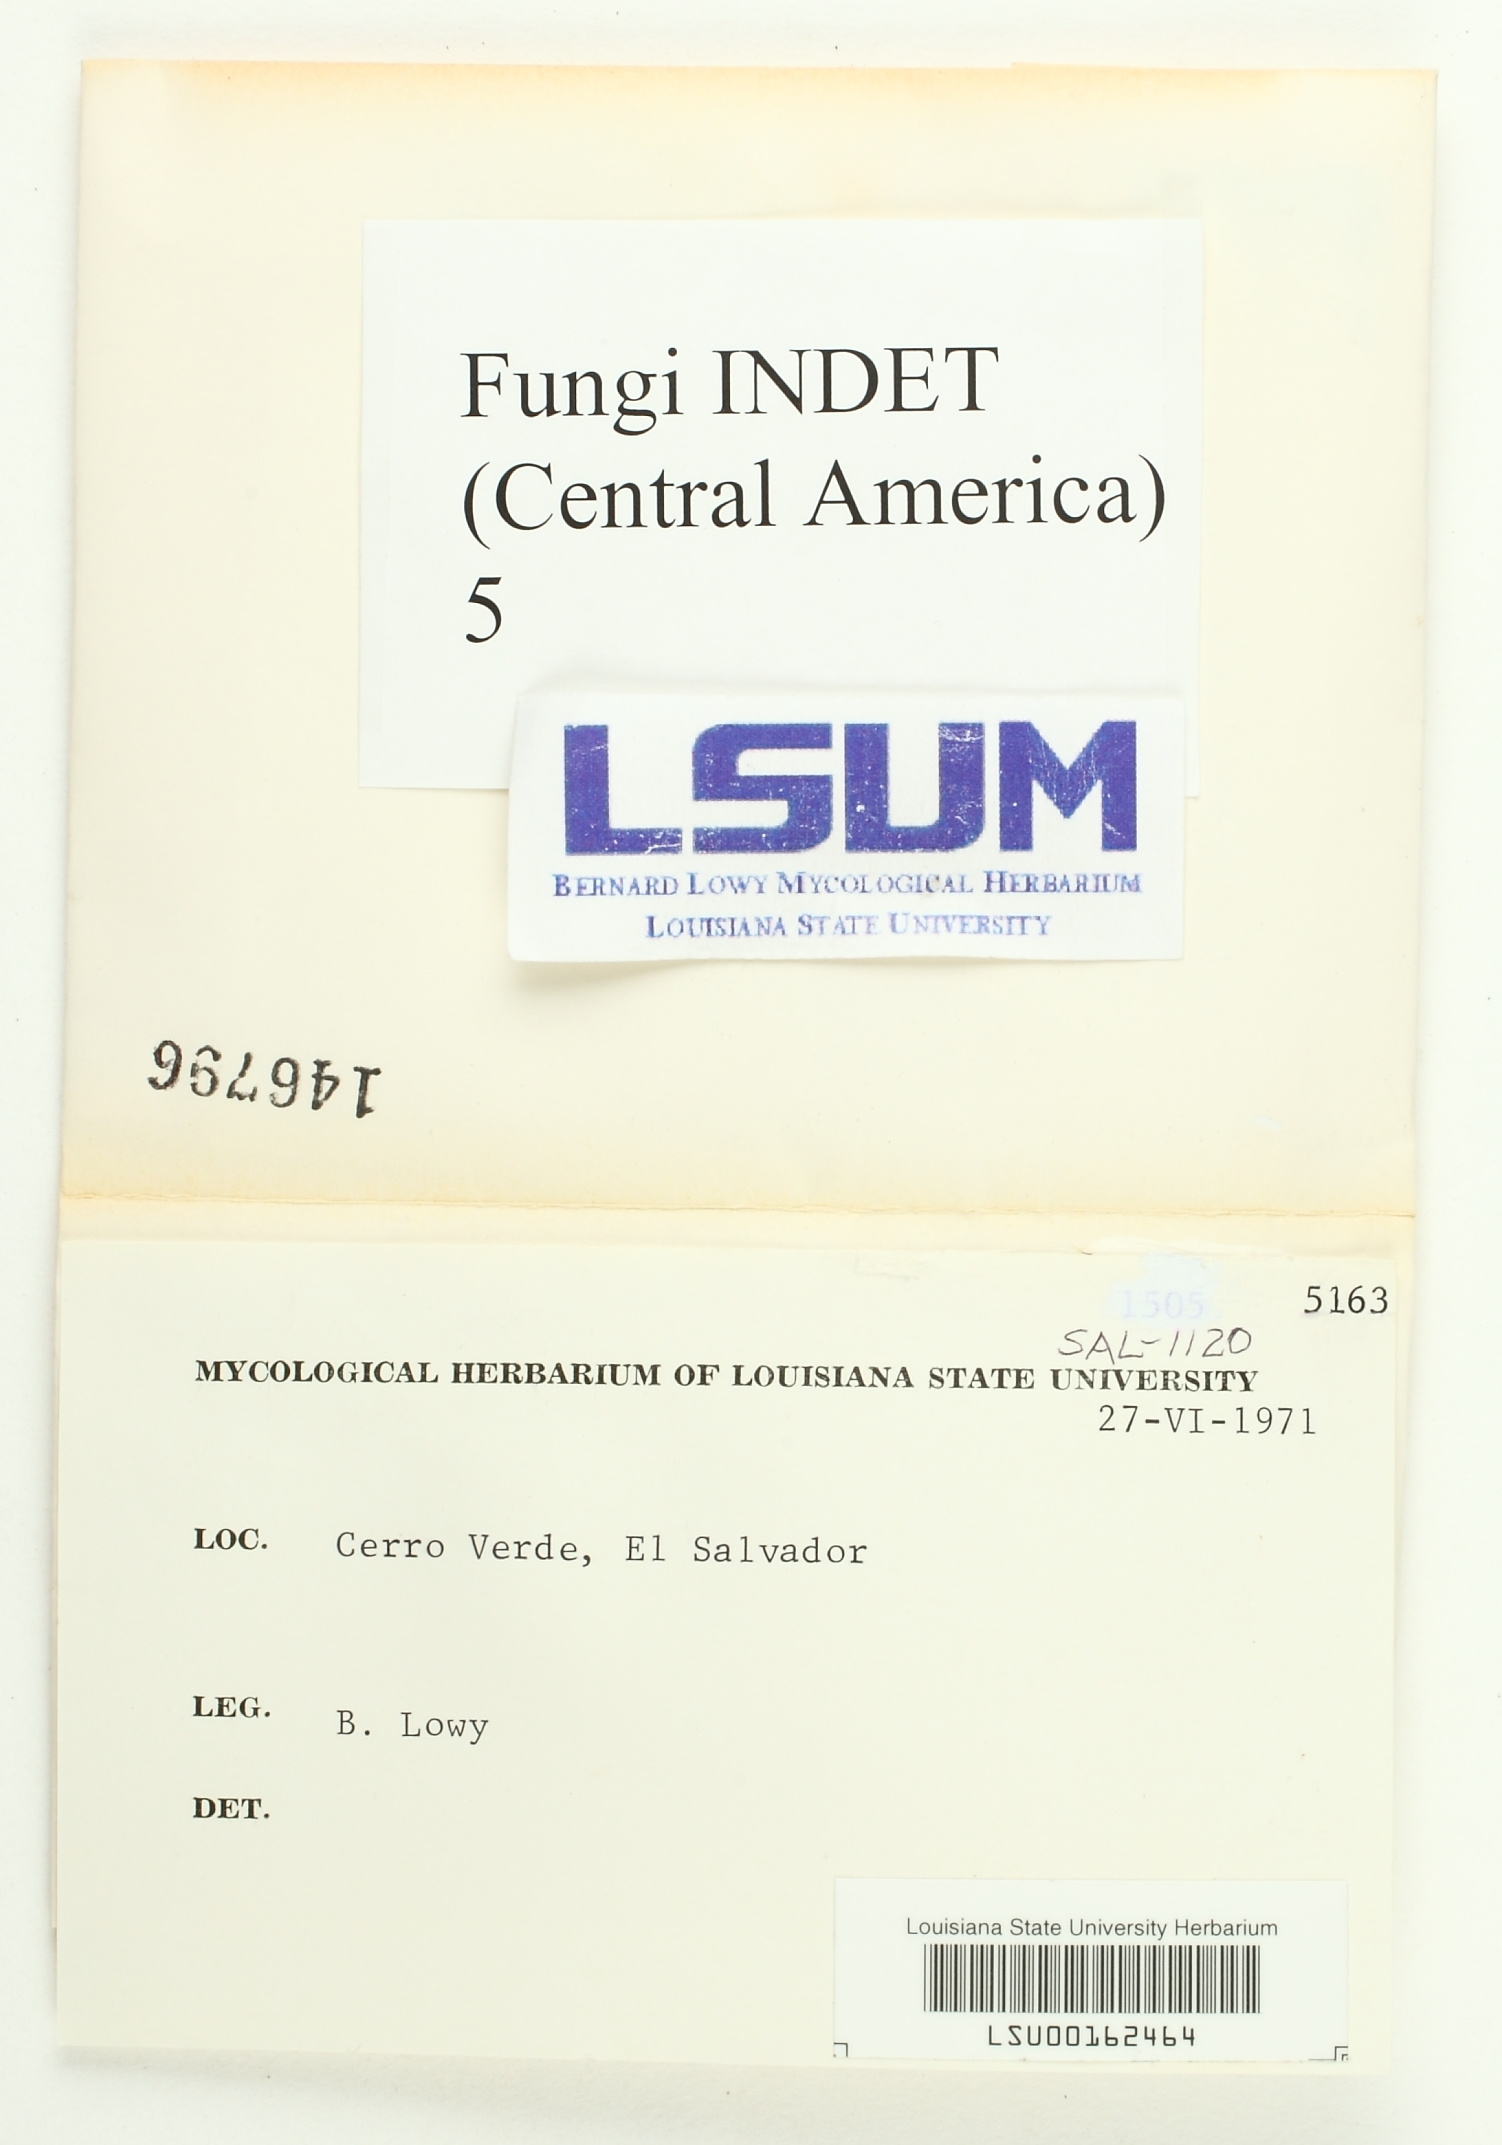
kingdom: Fungi
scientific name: Fungi
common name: Fungi
